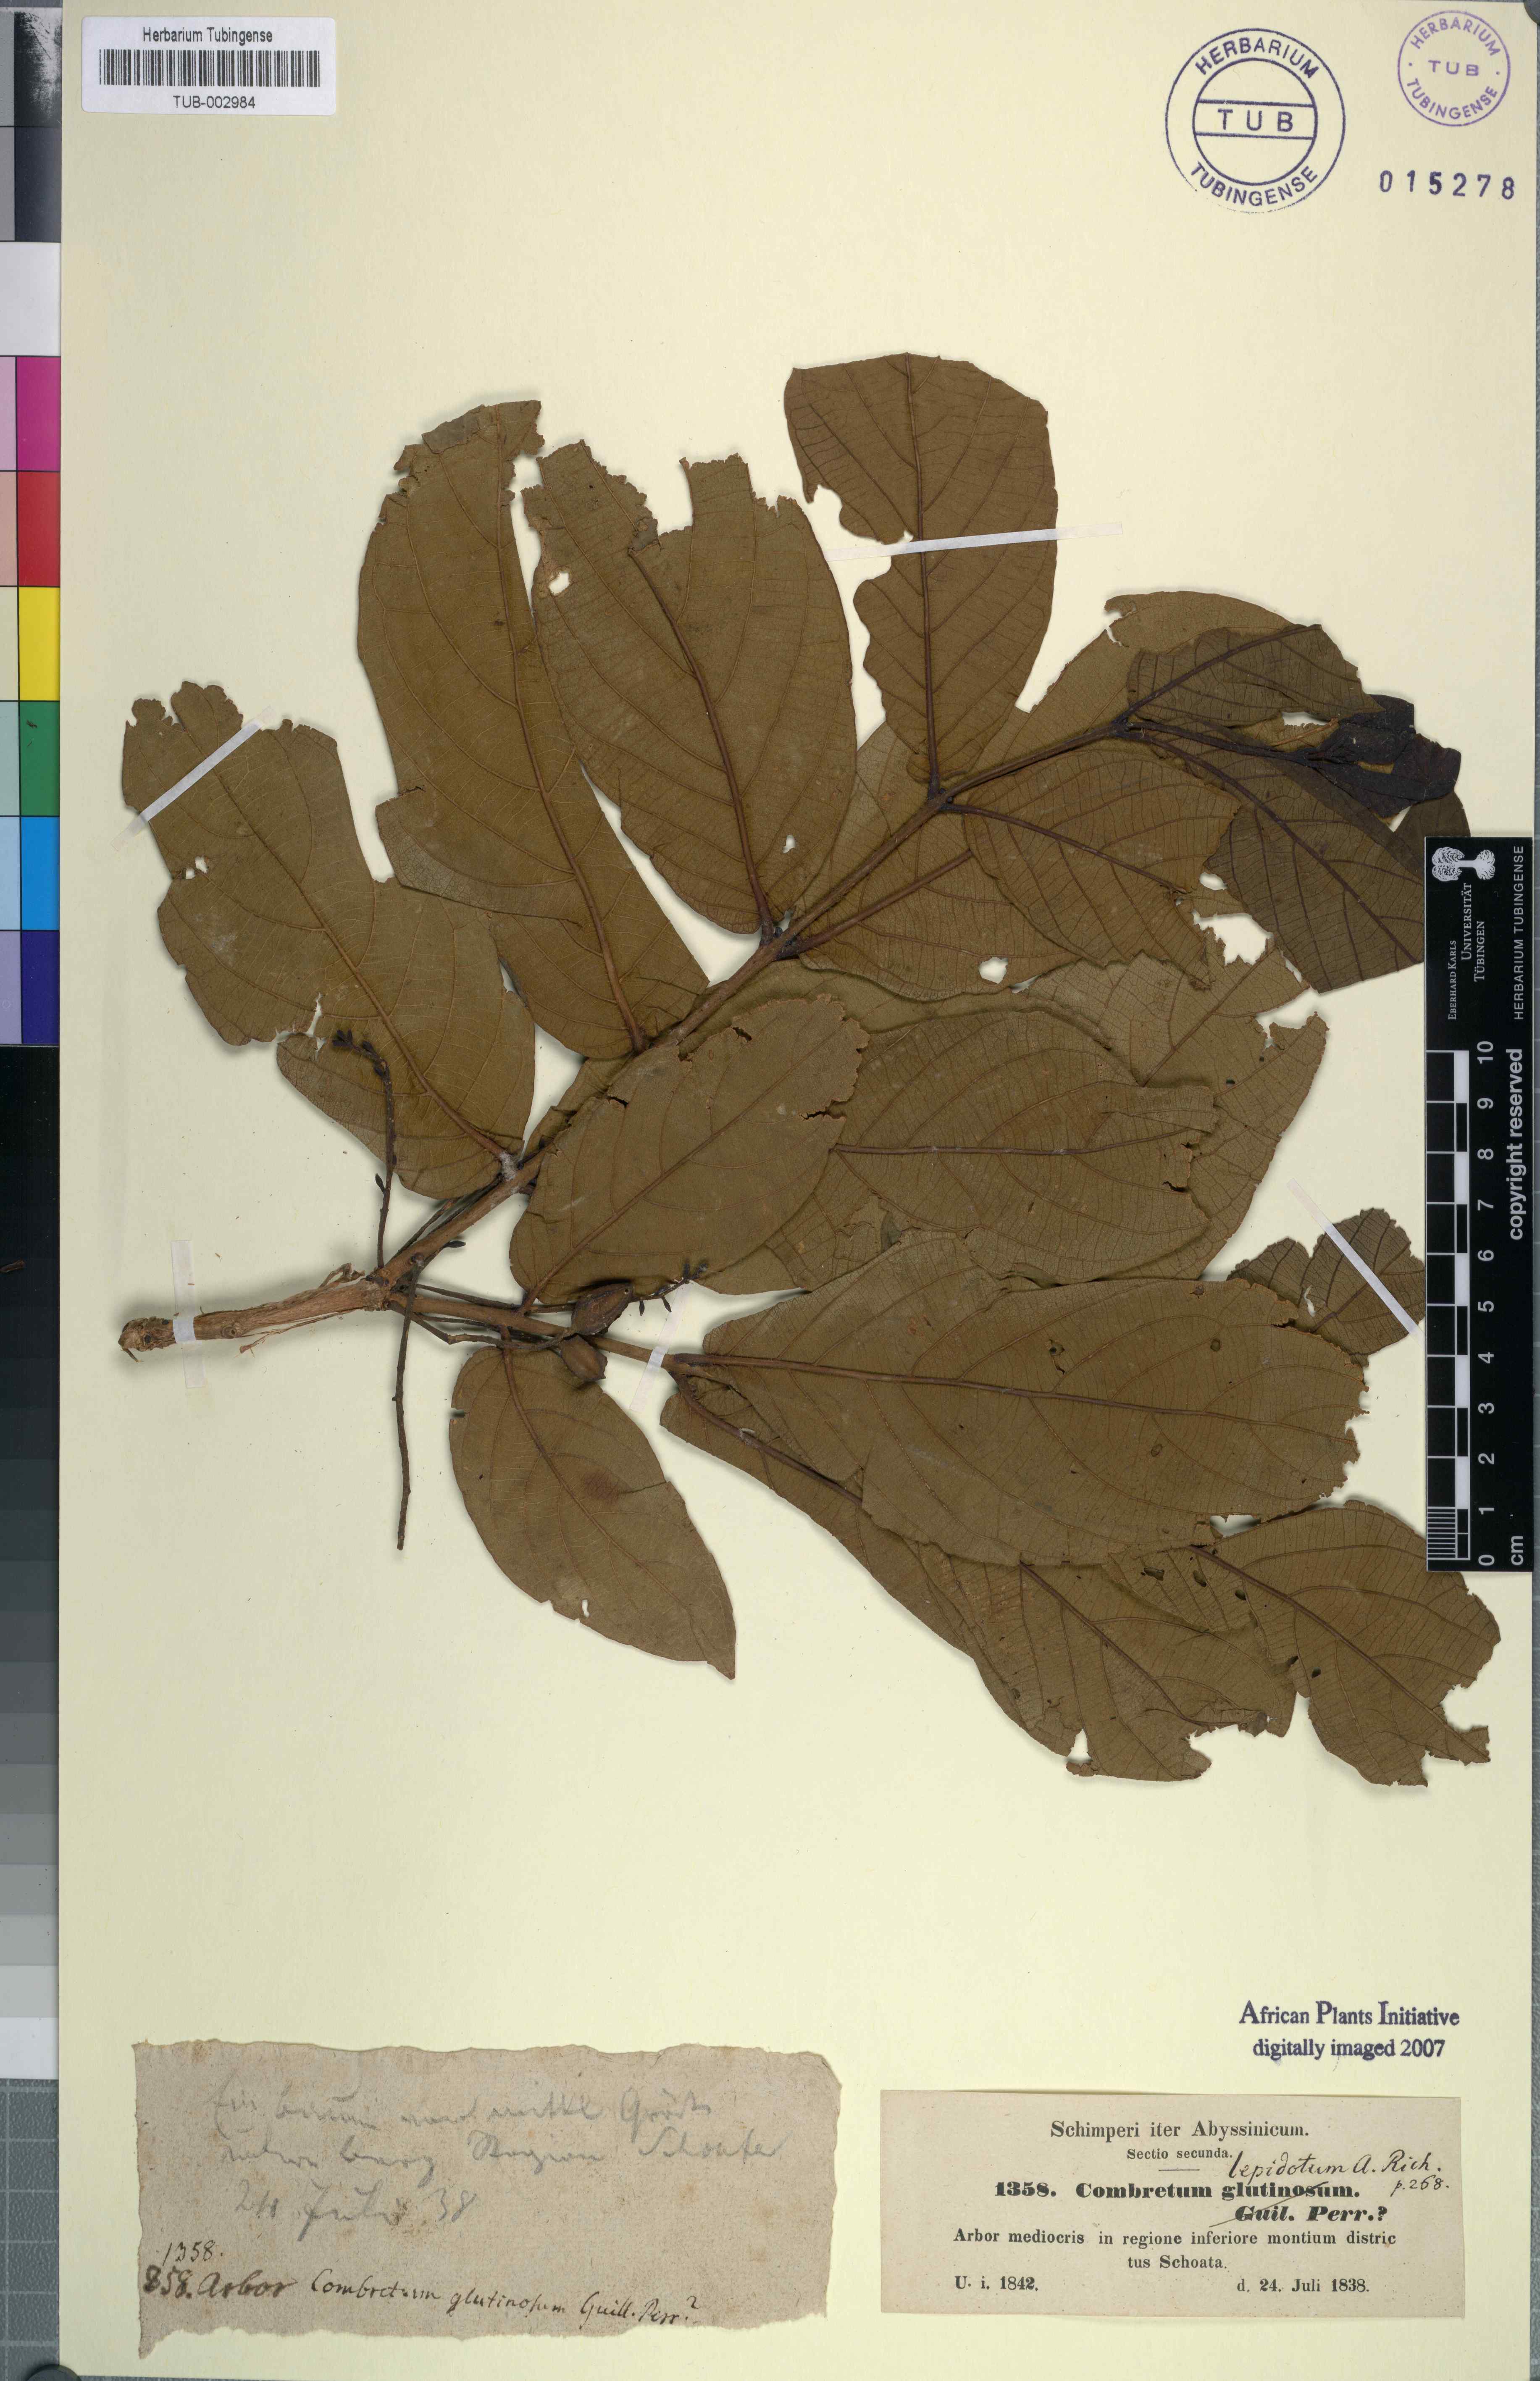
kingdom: Plantae
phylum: Tracheophyta
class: Magnoliopsida
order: Myrtales
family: Combretaceae
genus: Combretum
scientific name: Combretum molle
